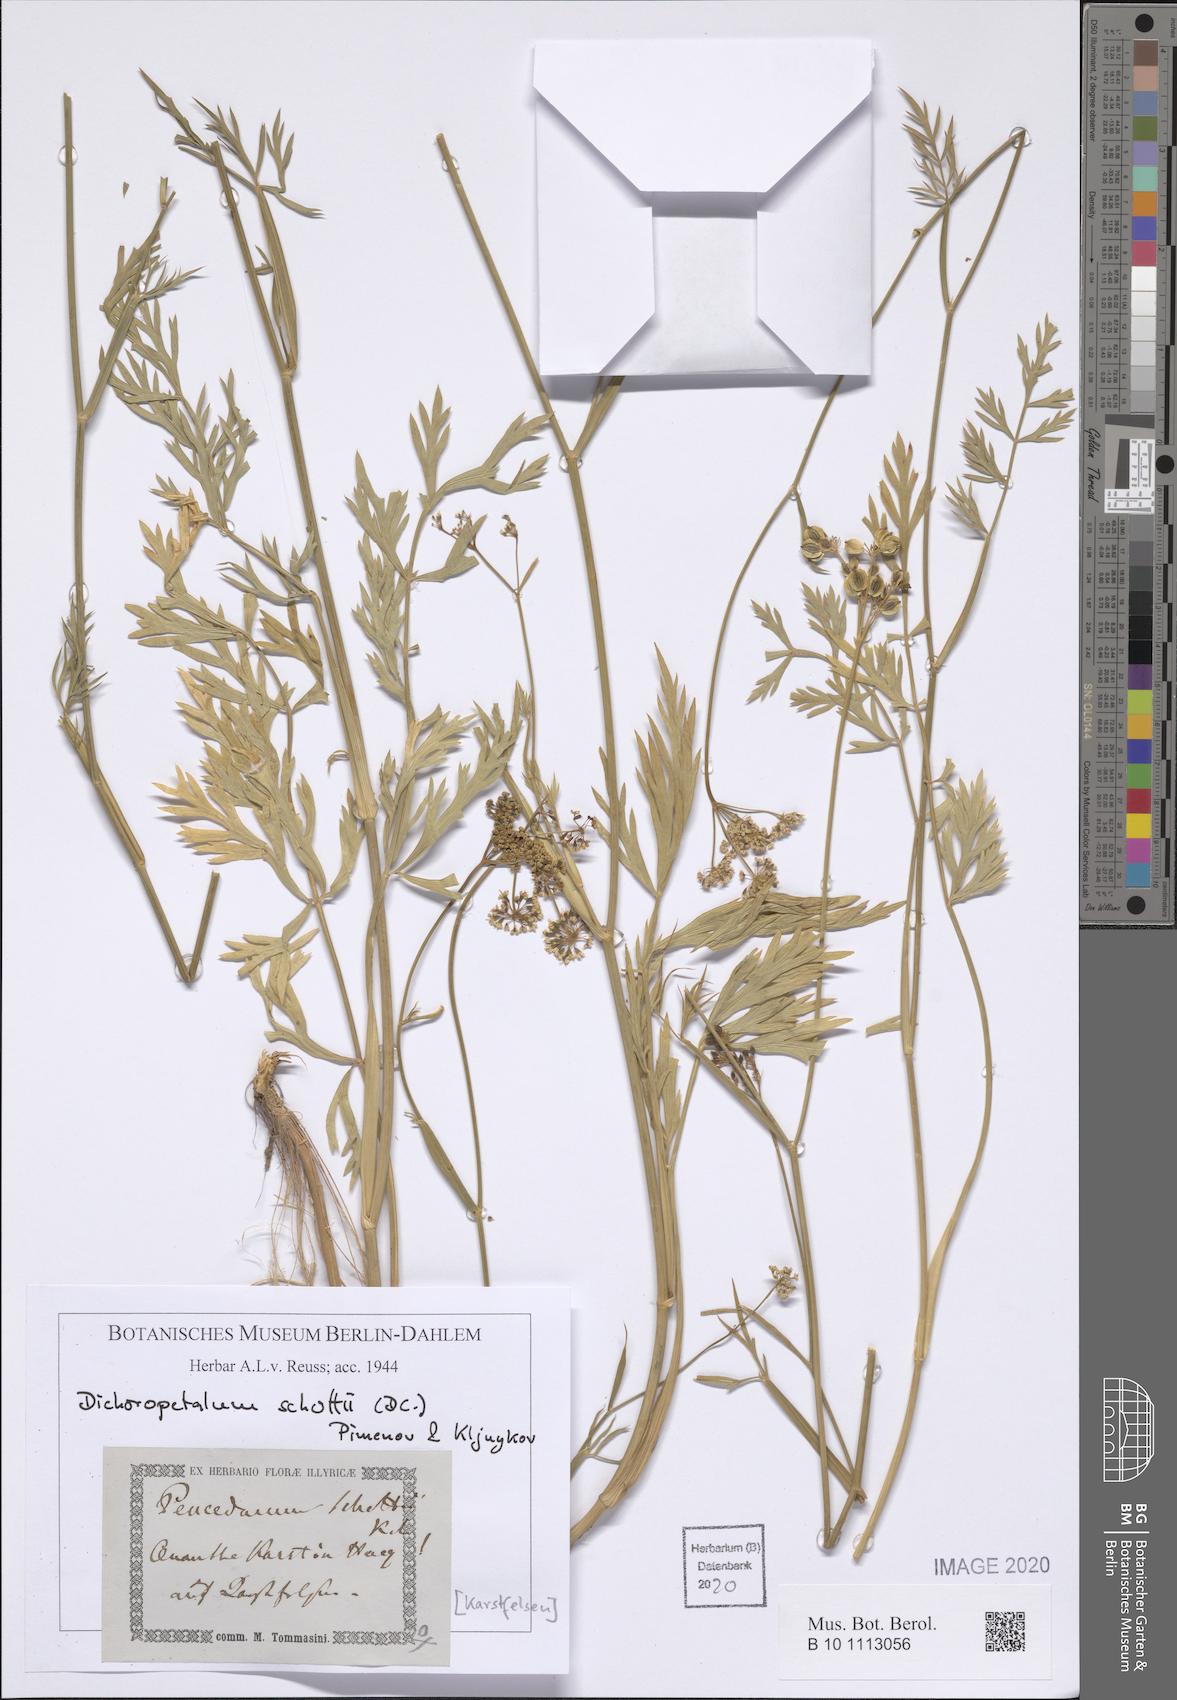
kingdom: Plantae
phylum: Tracheophyta
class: Magnoliopsida
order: Apiales
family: Apiaceae
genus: Dichoropetalum
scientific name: Dichoropetalum schottii
